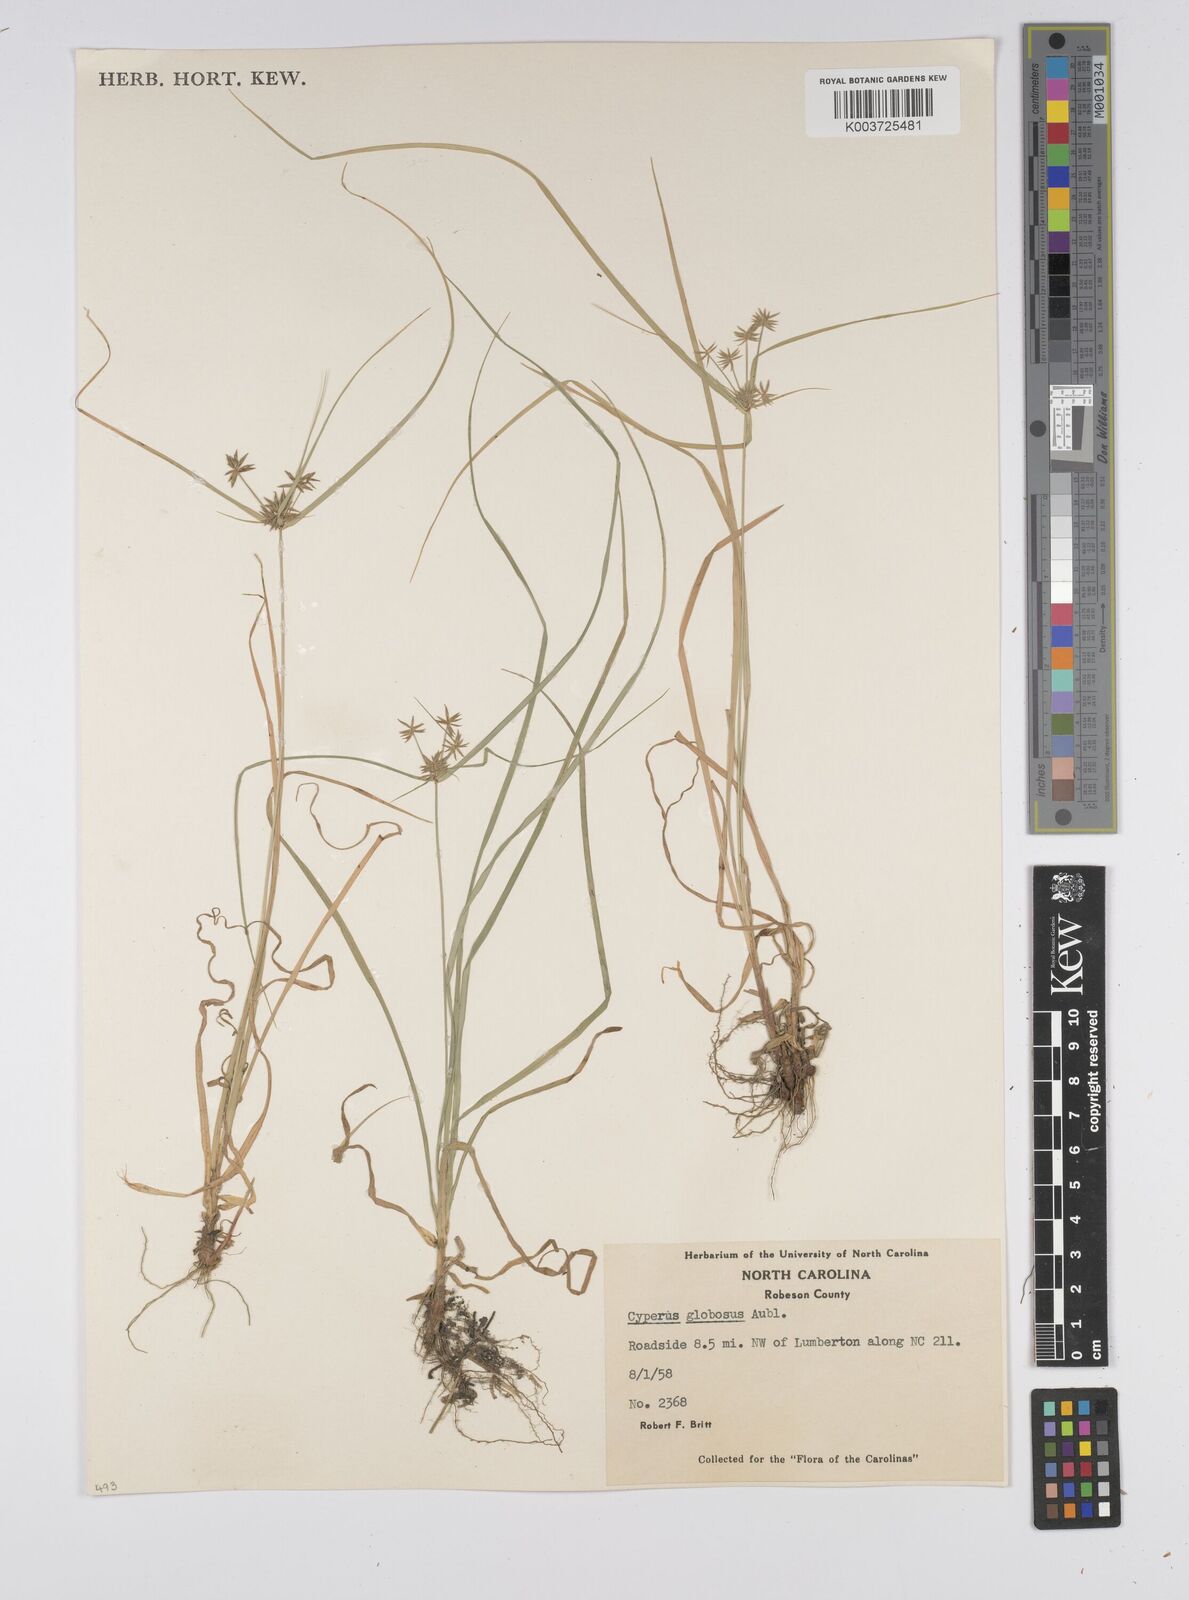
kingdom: Plantae
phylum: Tracheophyta
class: Liliopsida
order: Poales
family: Cyperaceae
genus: Cyperus
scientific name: Cyperus luzulae
